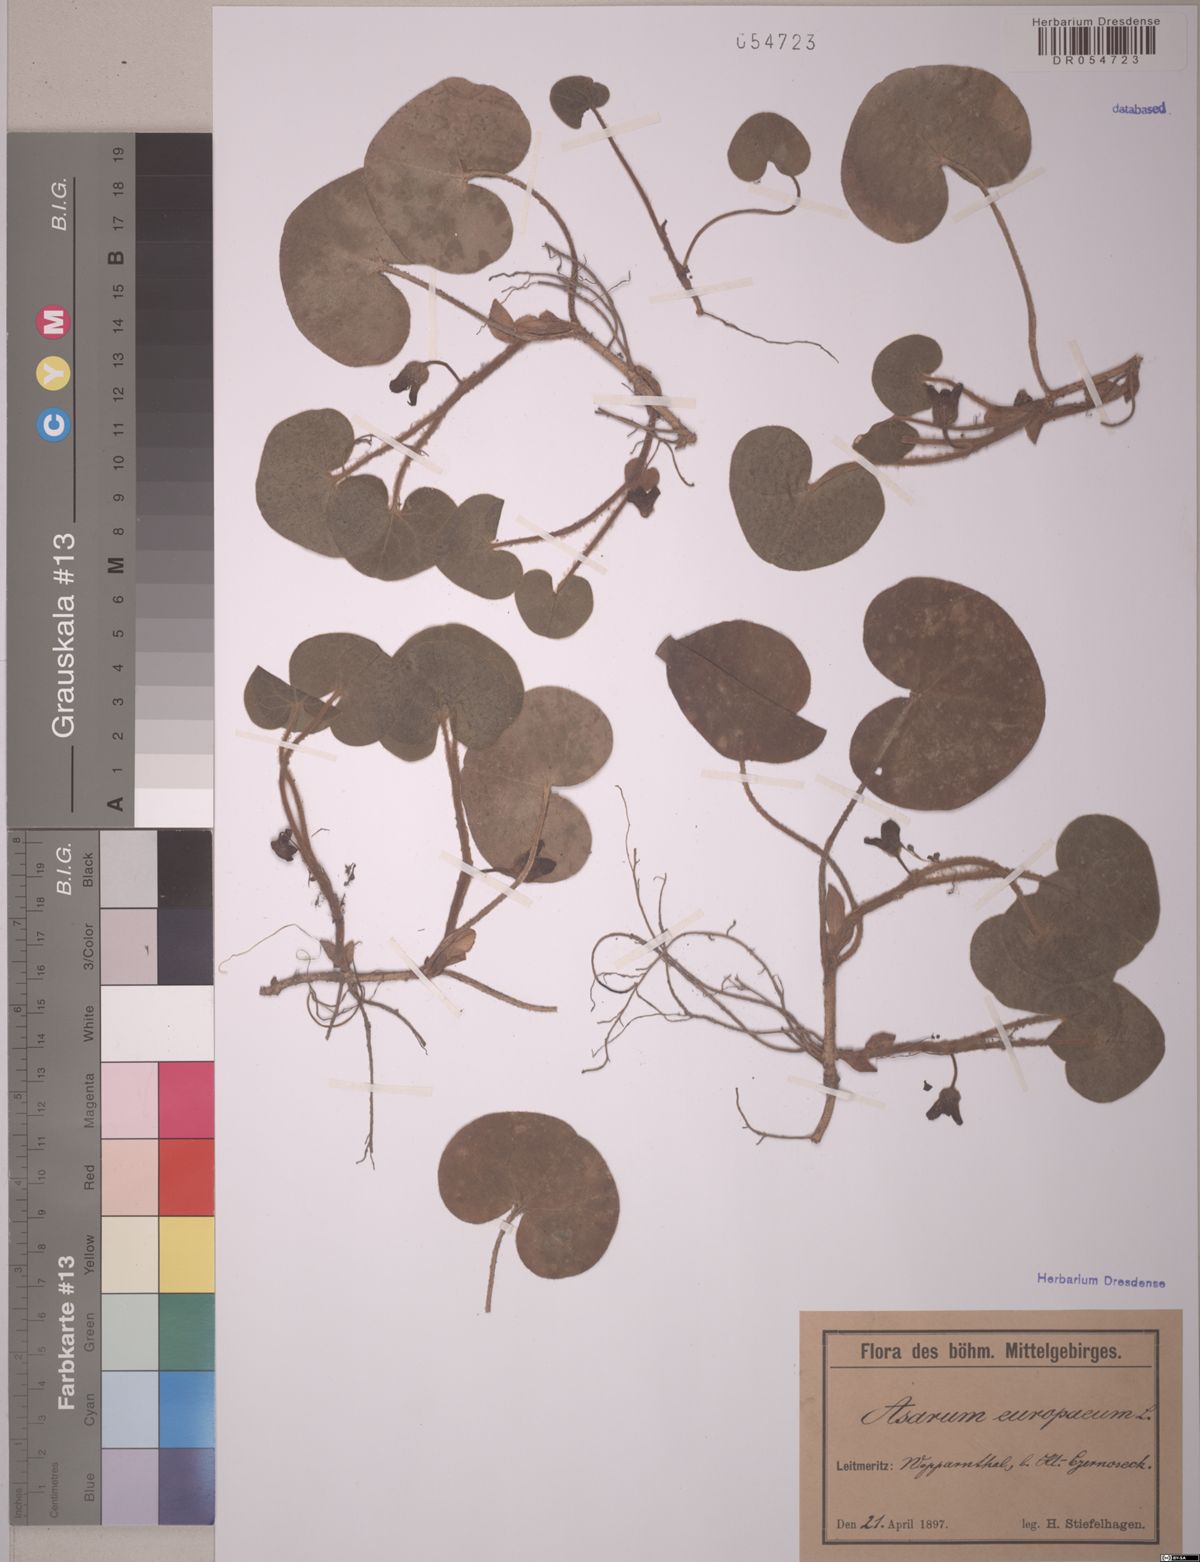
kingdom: Plantae
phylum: Tracheophyta
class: Magnoliopsida
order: Piperales
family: Aristolochiaceae
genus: Asarum
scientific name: Asarum europaeum
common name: Asarabacca
